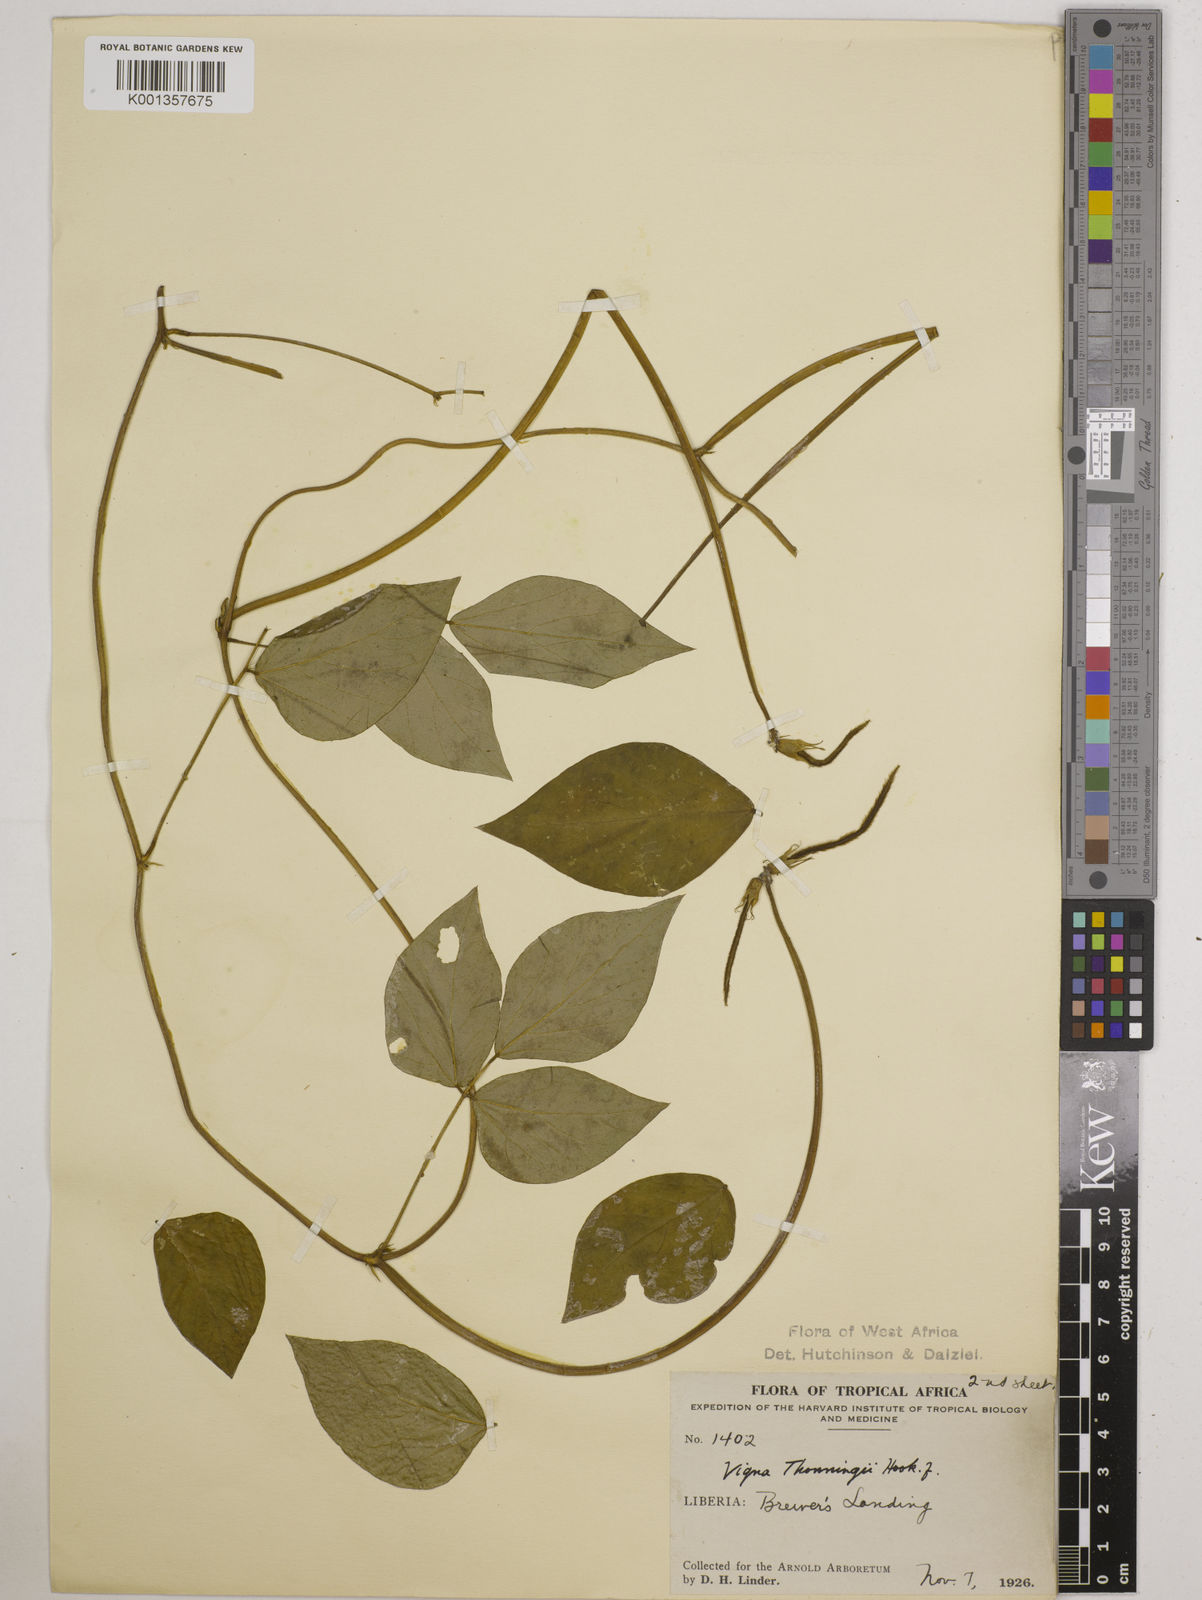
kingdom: Plantae
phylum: Tracheophyta
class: Magnoliopsida
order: Fabales
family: Fabaceae
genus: Vigna
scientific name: Vigna
